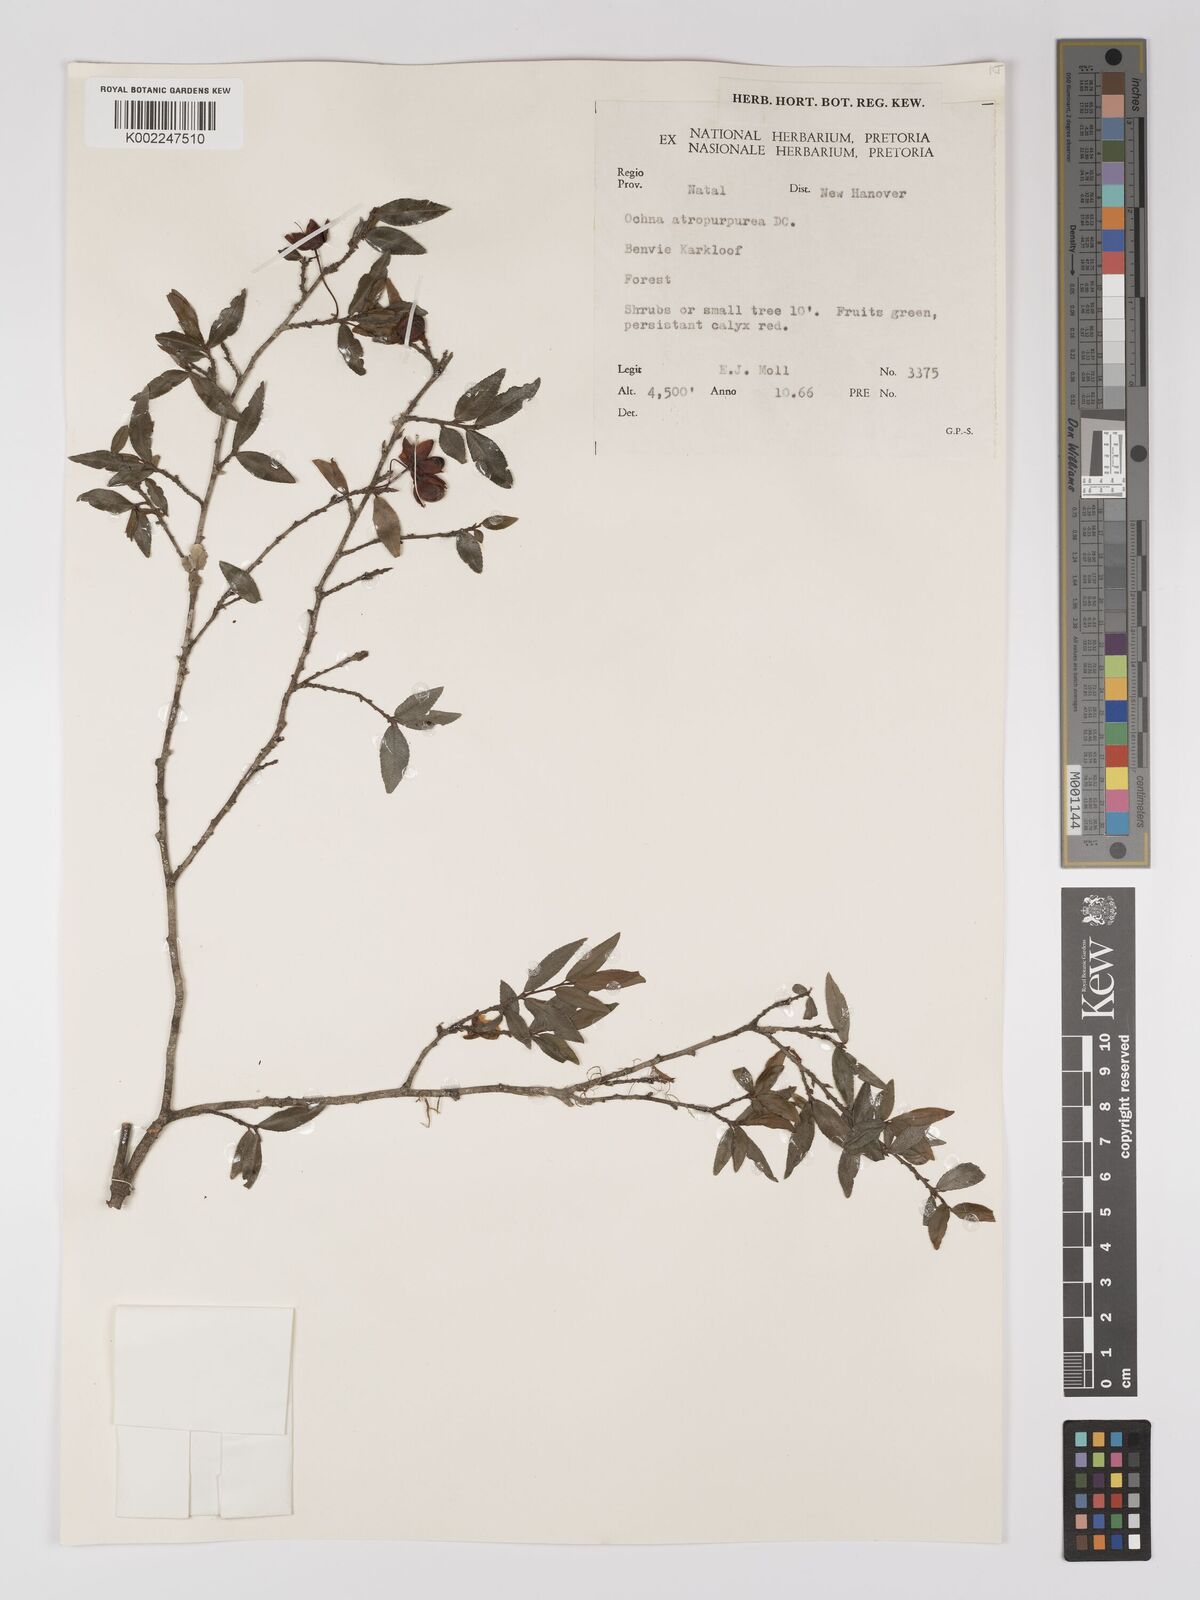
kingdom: Plantae
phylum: Tracheophyta
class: Magnoliopsida
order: Malpighiales
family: Ochnaceae
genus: Ochna
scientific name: Ochna serrulata
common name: Mickey mouse plant
